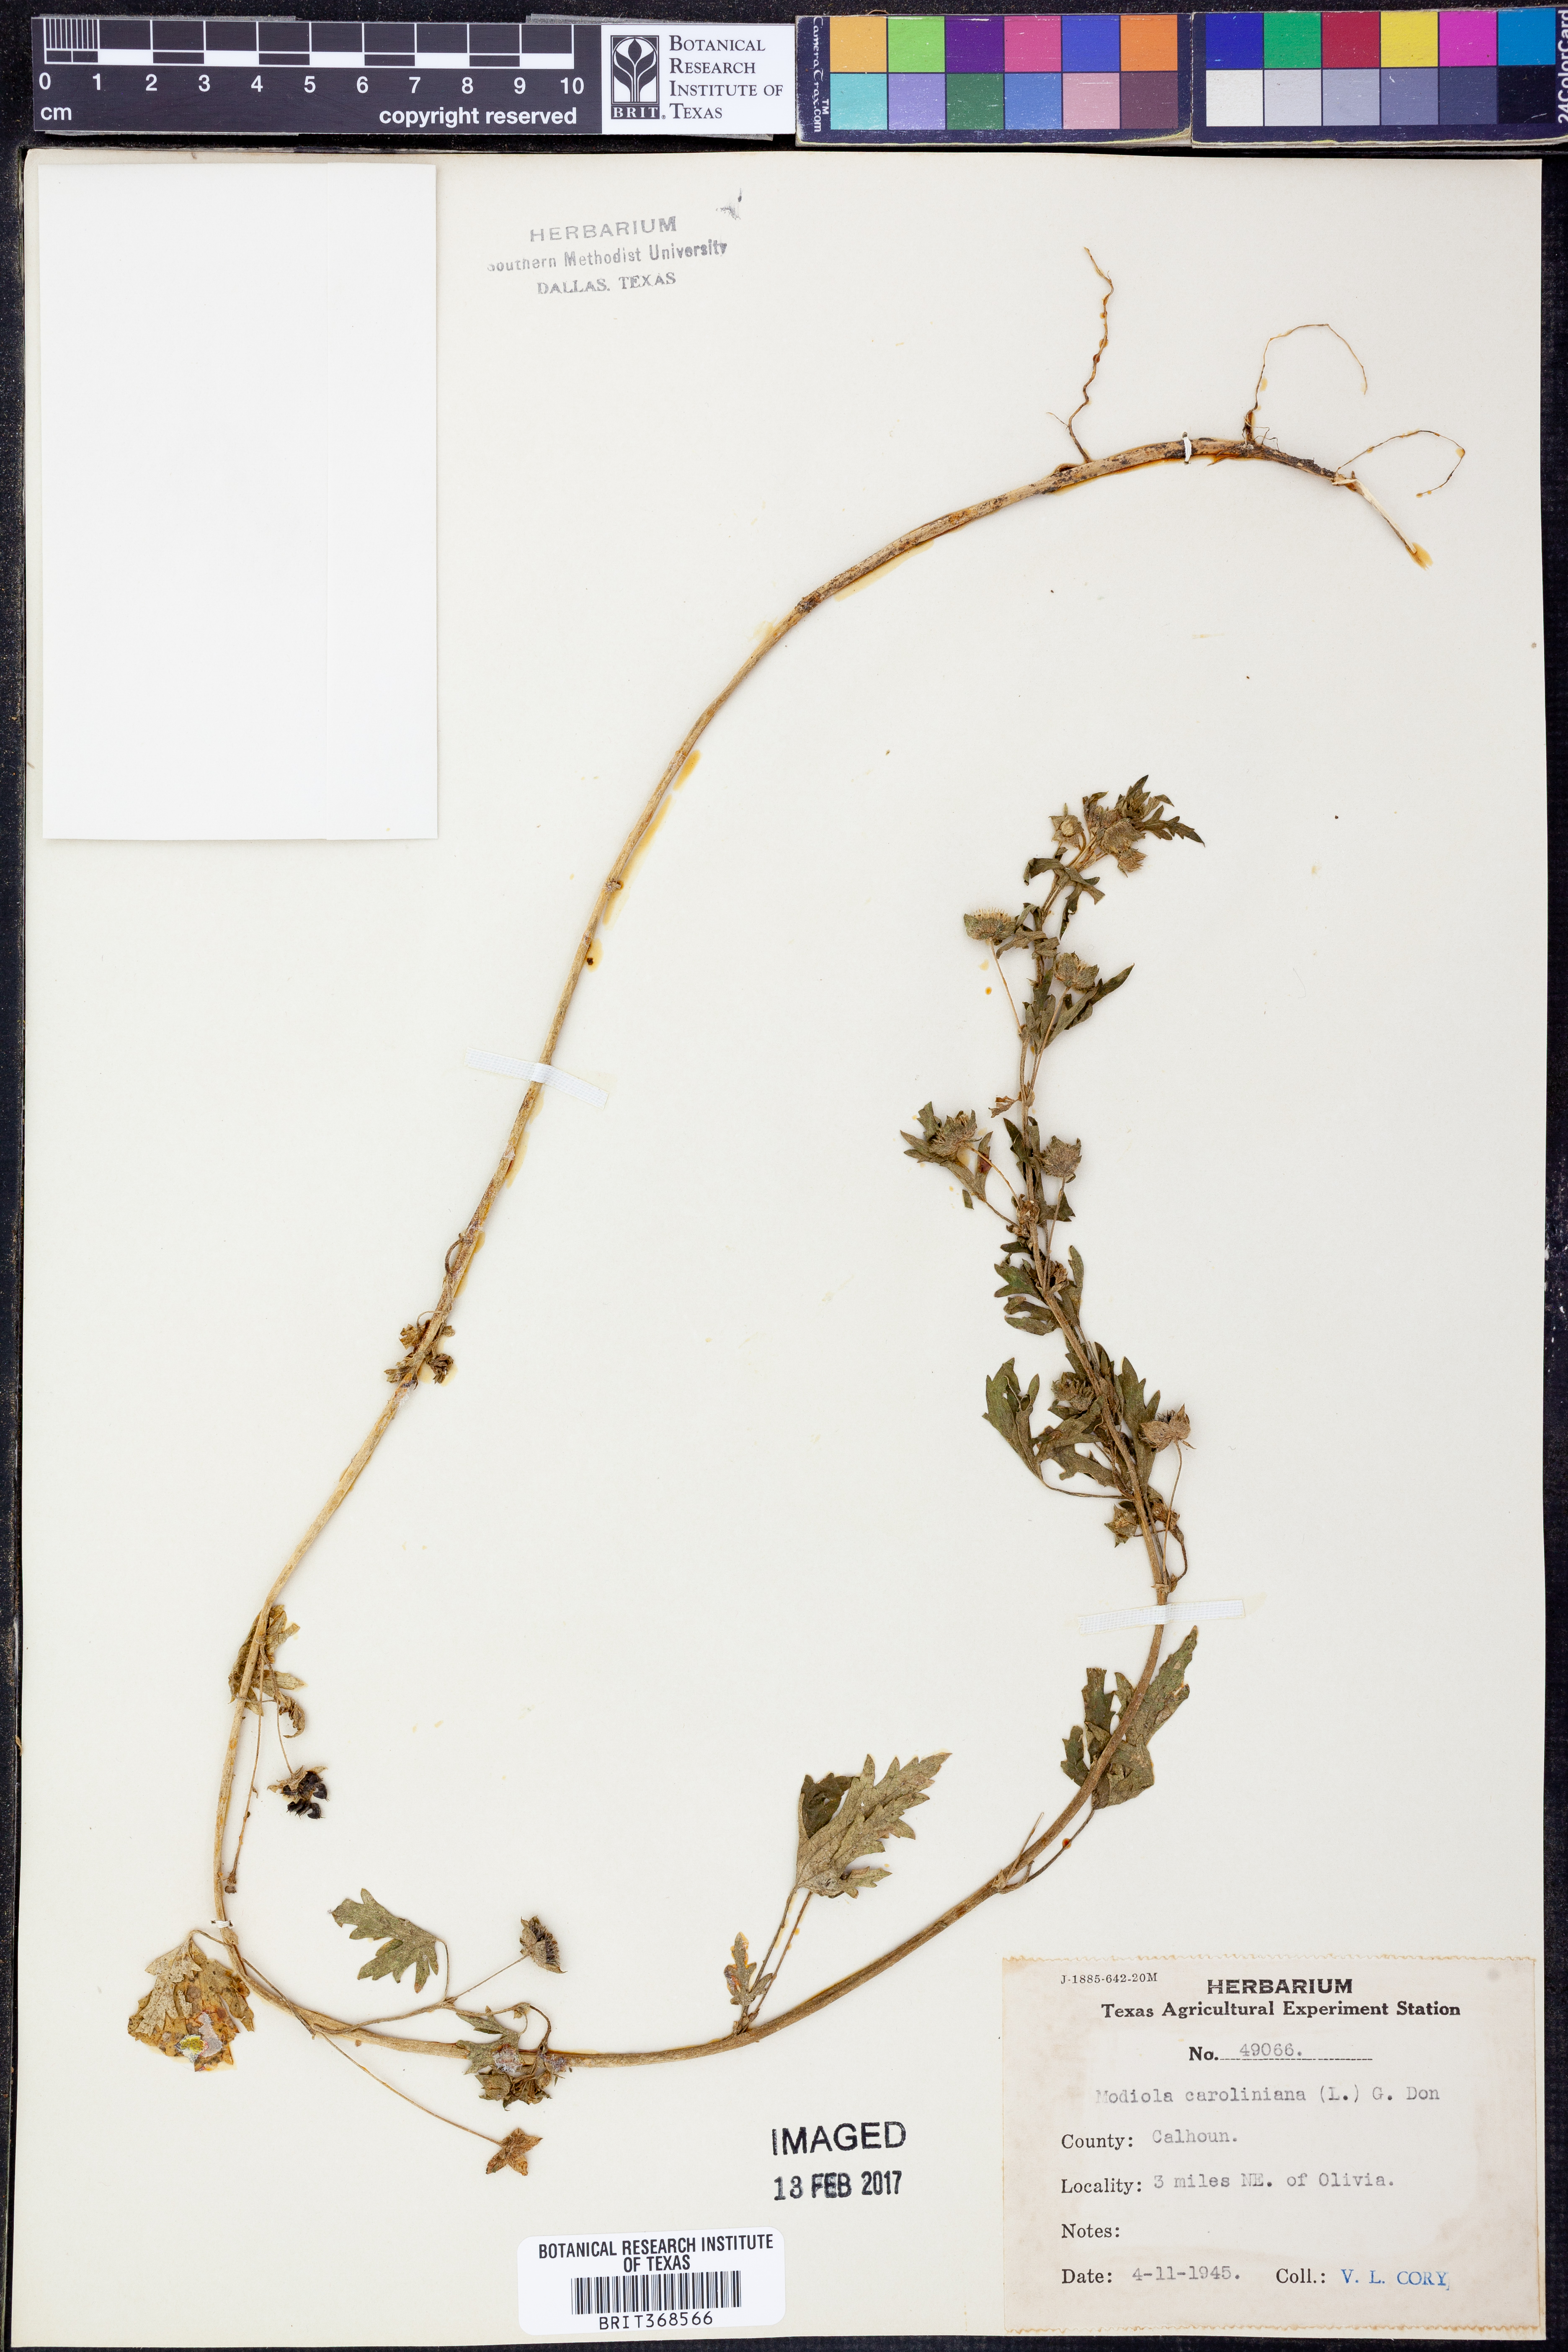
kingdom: Plantae
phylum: Tracheophyta
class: Magnoliopsida
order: Malvales
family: Malvaceae
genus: Modiola
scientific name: Modiola caroliniana
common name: Carolina bristlemallow
